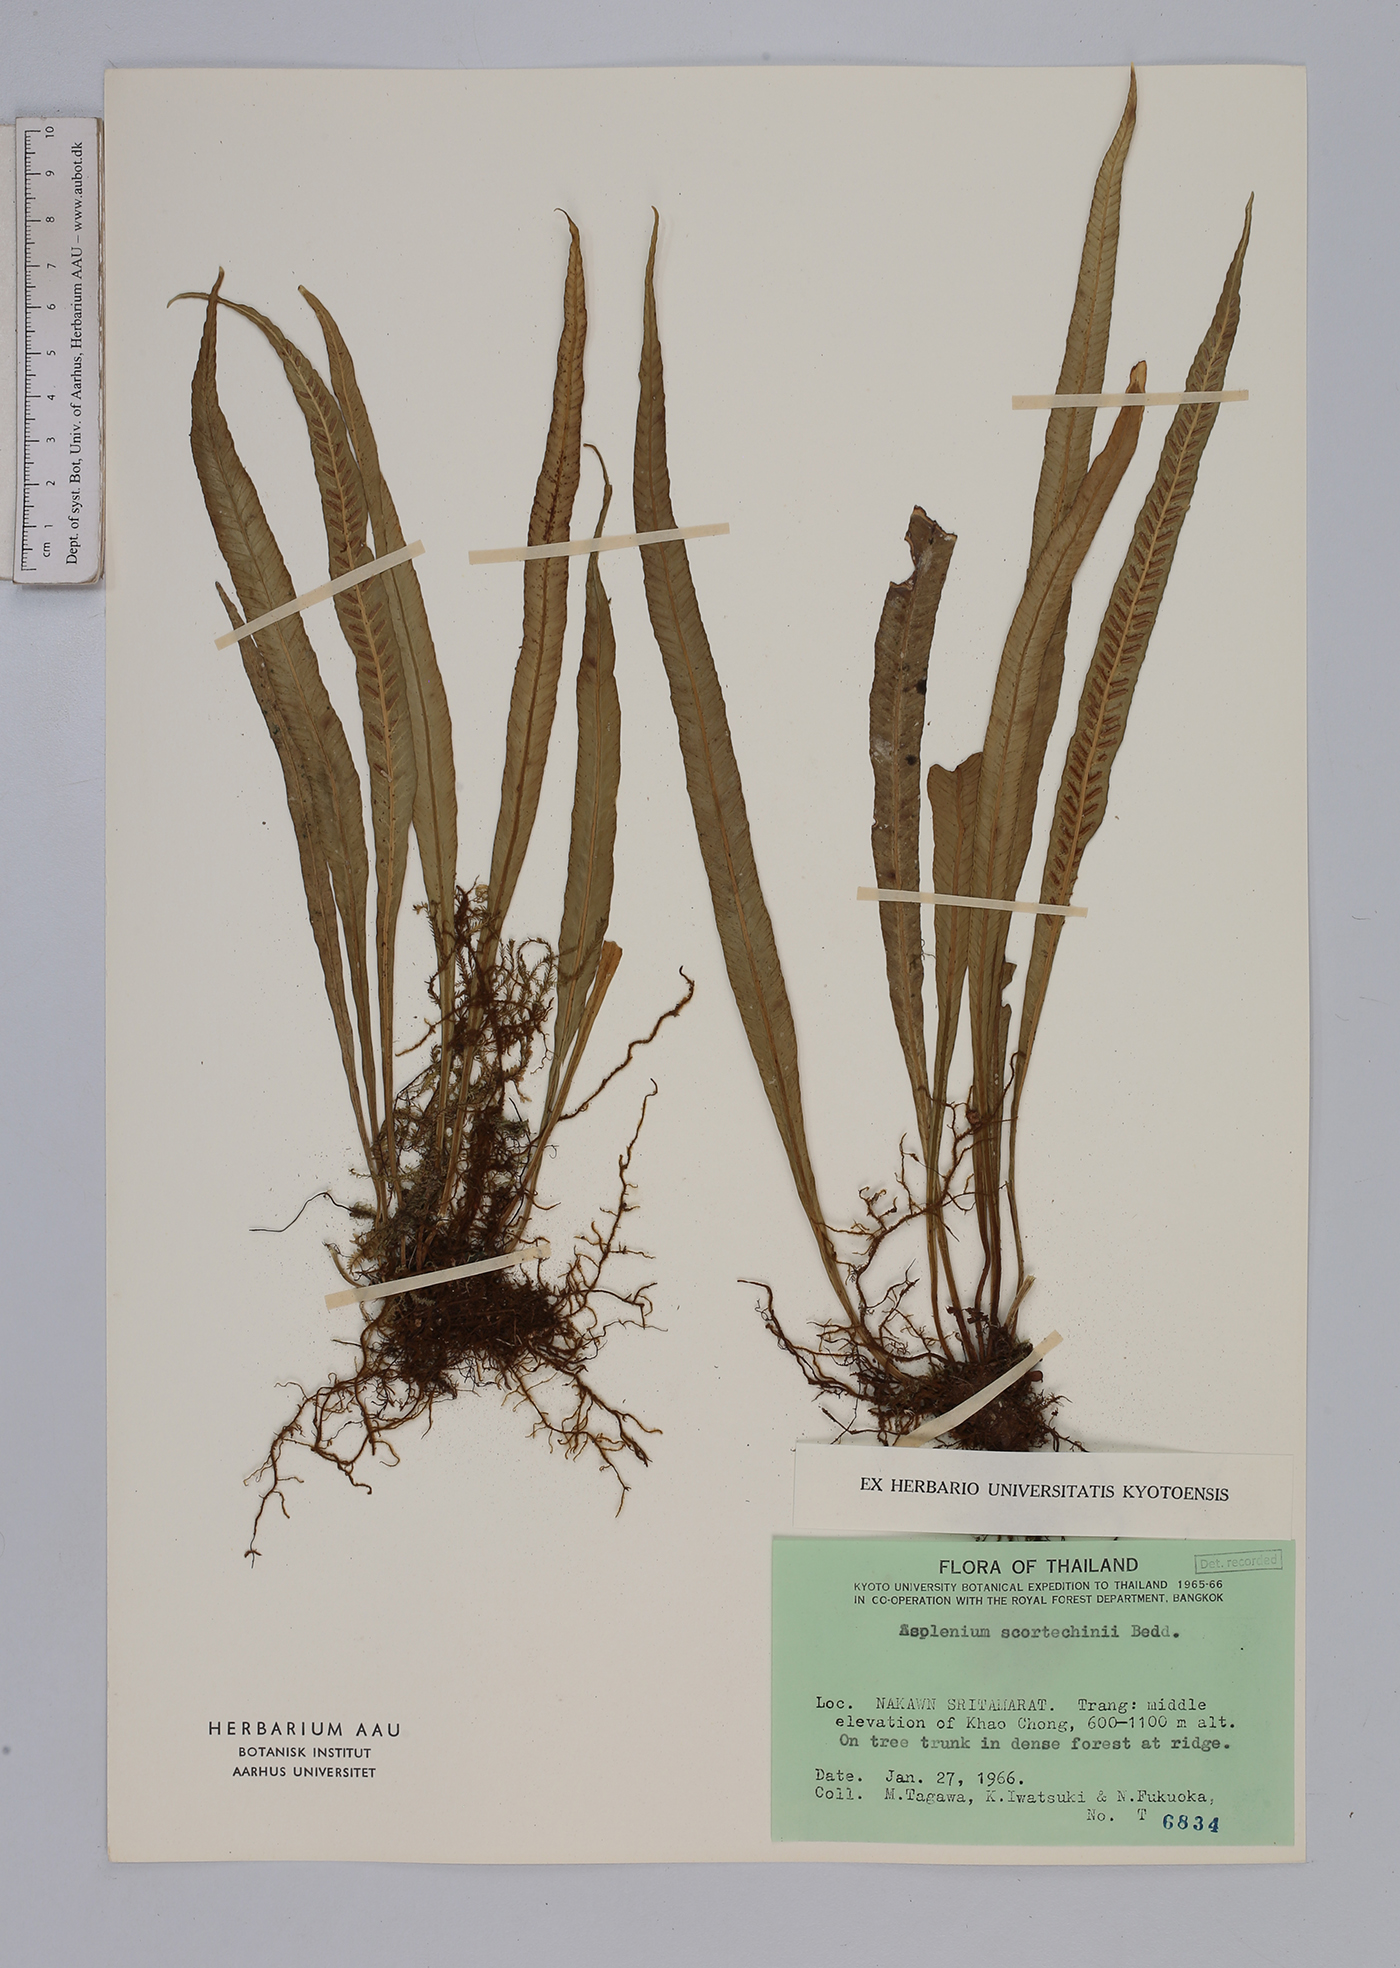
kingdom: Plantae
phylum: Tracheophyta
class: Polypodiopsida
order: Polypodiales
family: Aspleniaceae
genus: Asplenium
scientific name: Asplenium scortechinii
